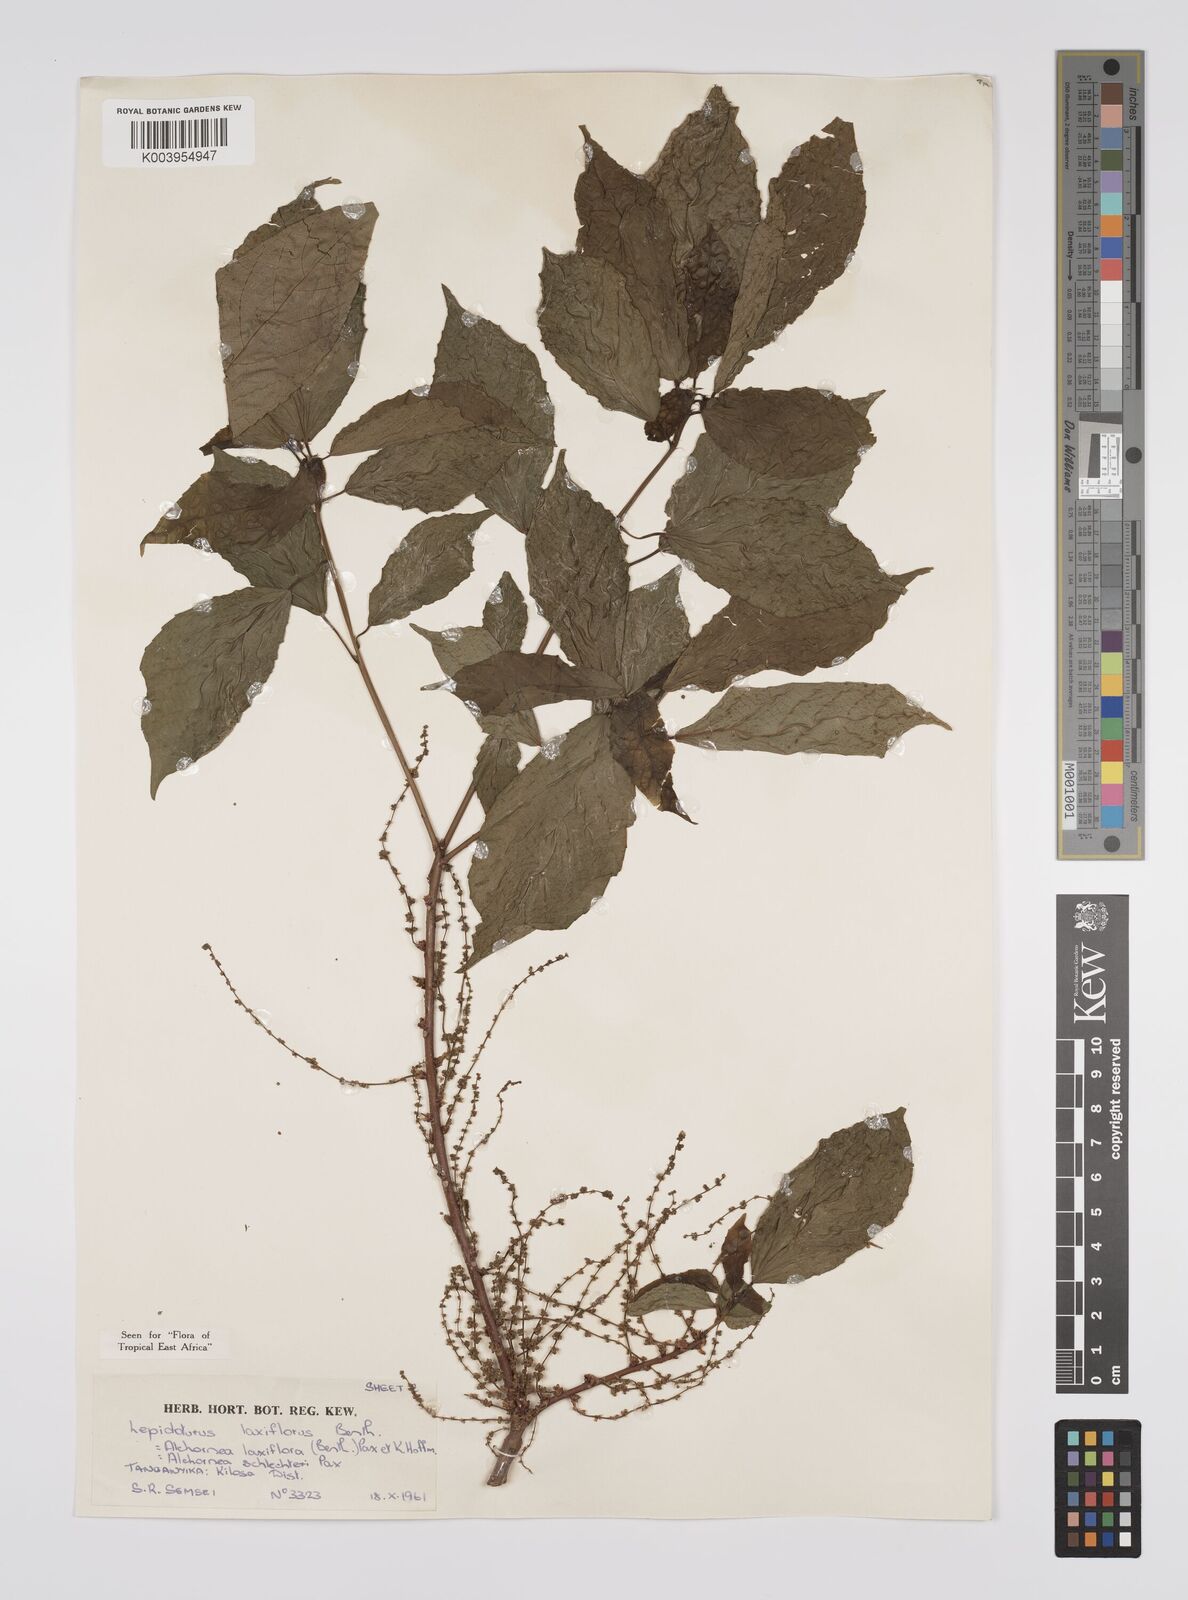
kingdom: Plantae
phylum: Tracheophyta
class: Magnoliopsida
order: Malpighiales
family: Euphorbiaceae
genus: Alchornea
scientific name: Alchornea laxiflora
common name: Lowveld bead-string
